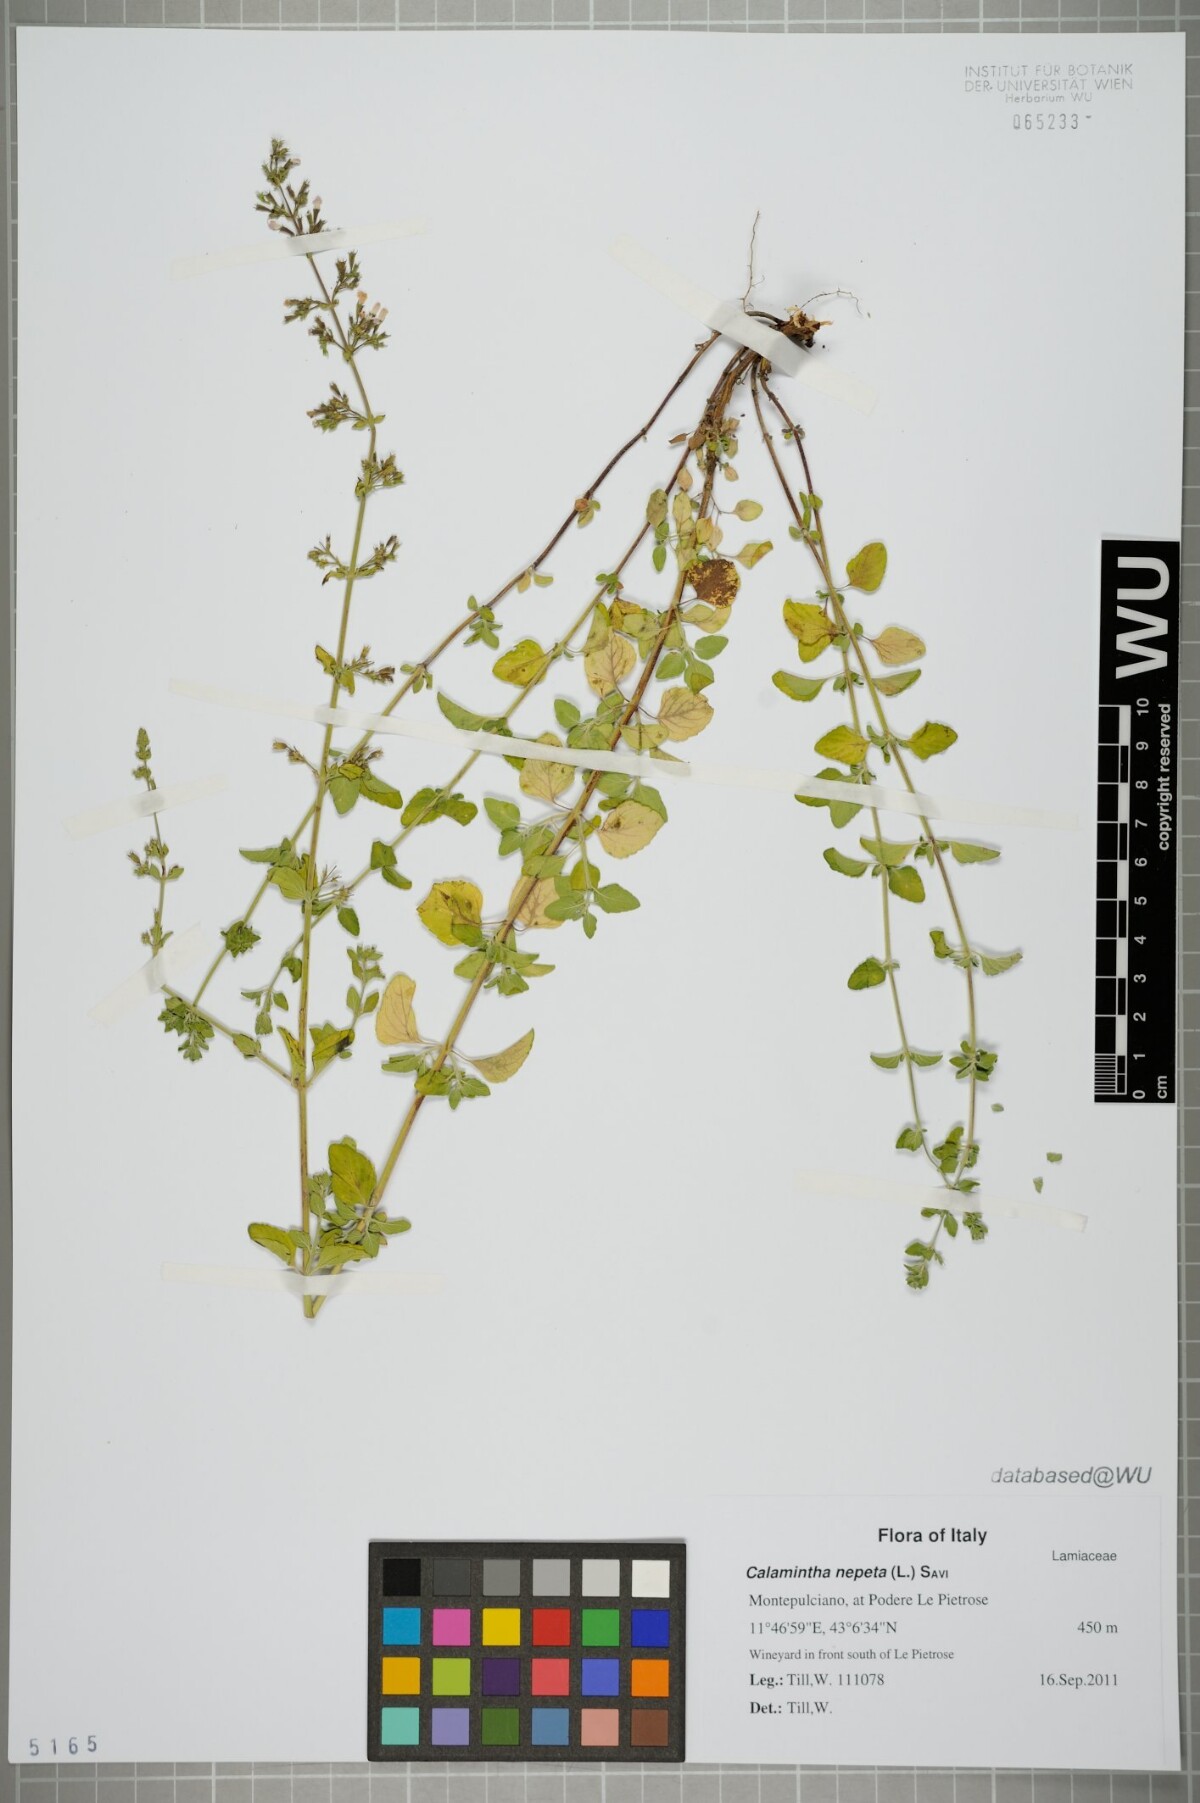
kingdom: Plantae
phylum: Tracheophyta
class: Magnoliopsida
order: Lamiales
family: Lamiaceae
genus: Clinopodium
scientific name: Clinopodium nepeta
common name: Lesser calamint
